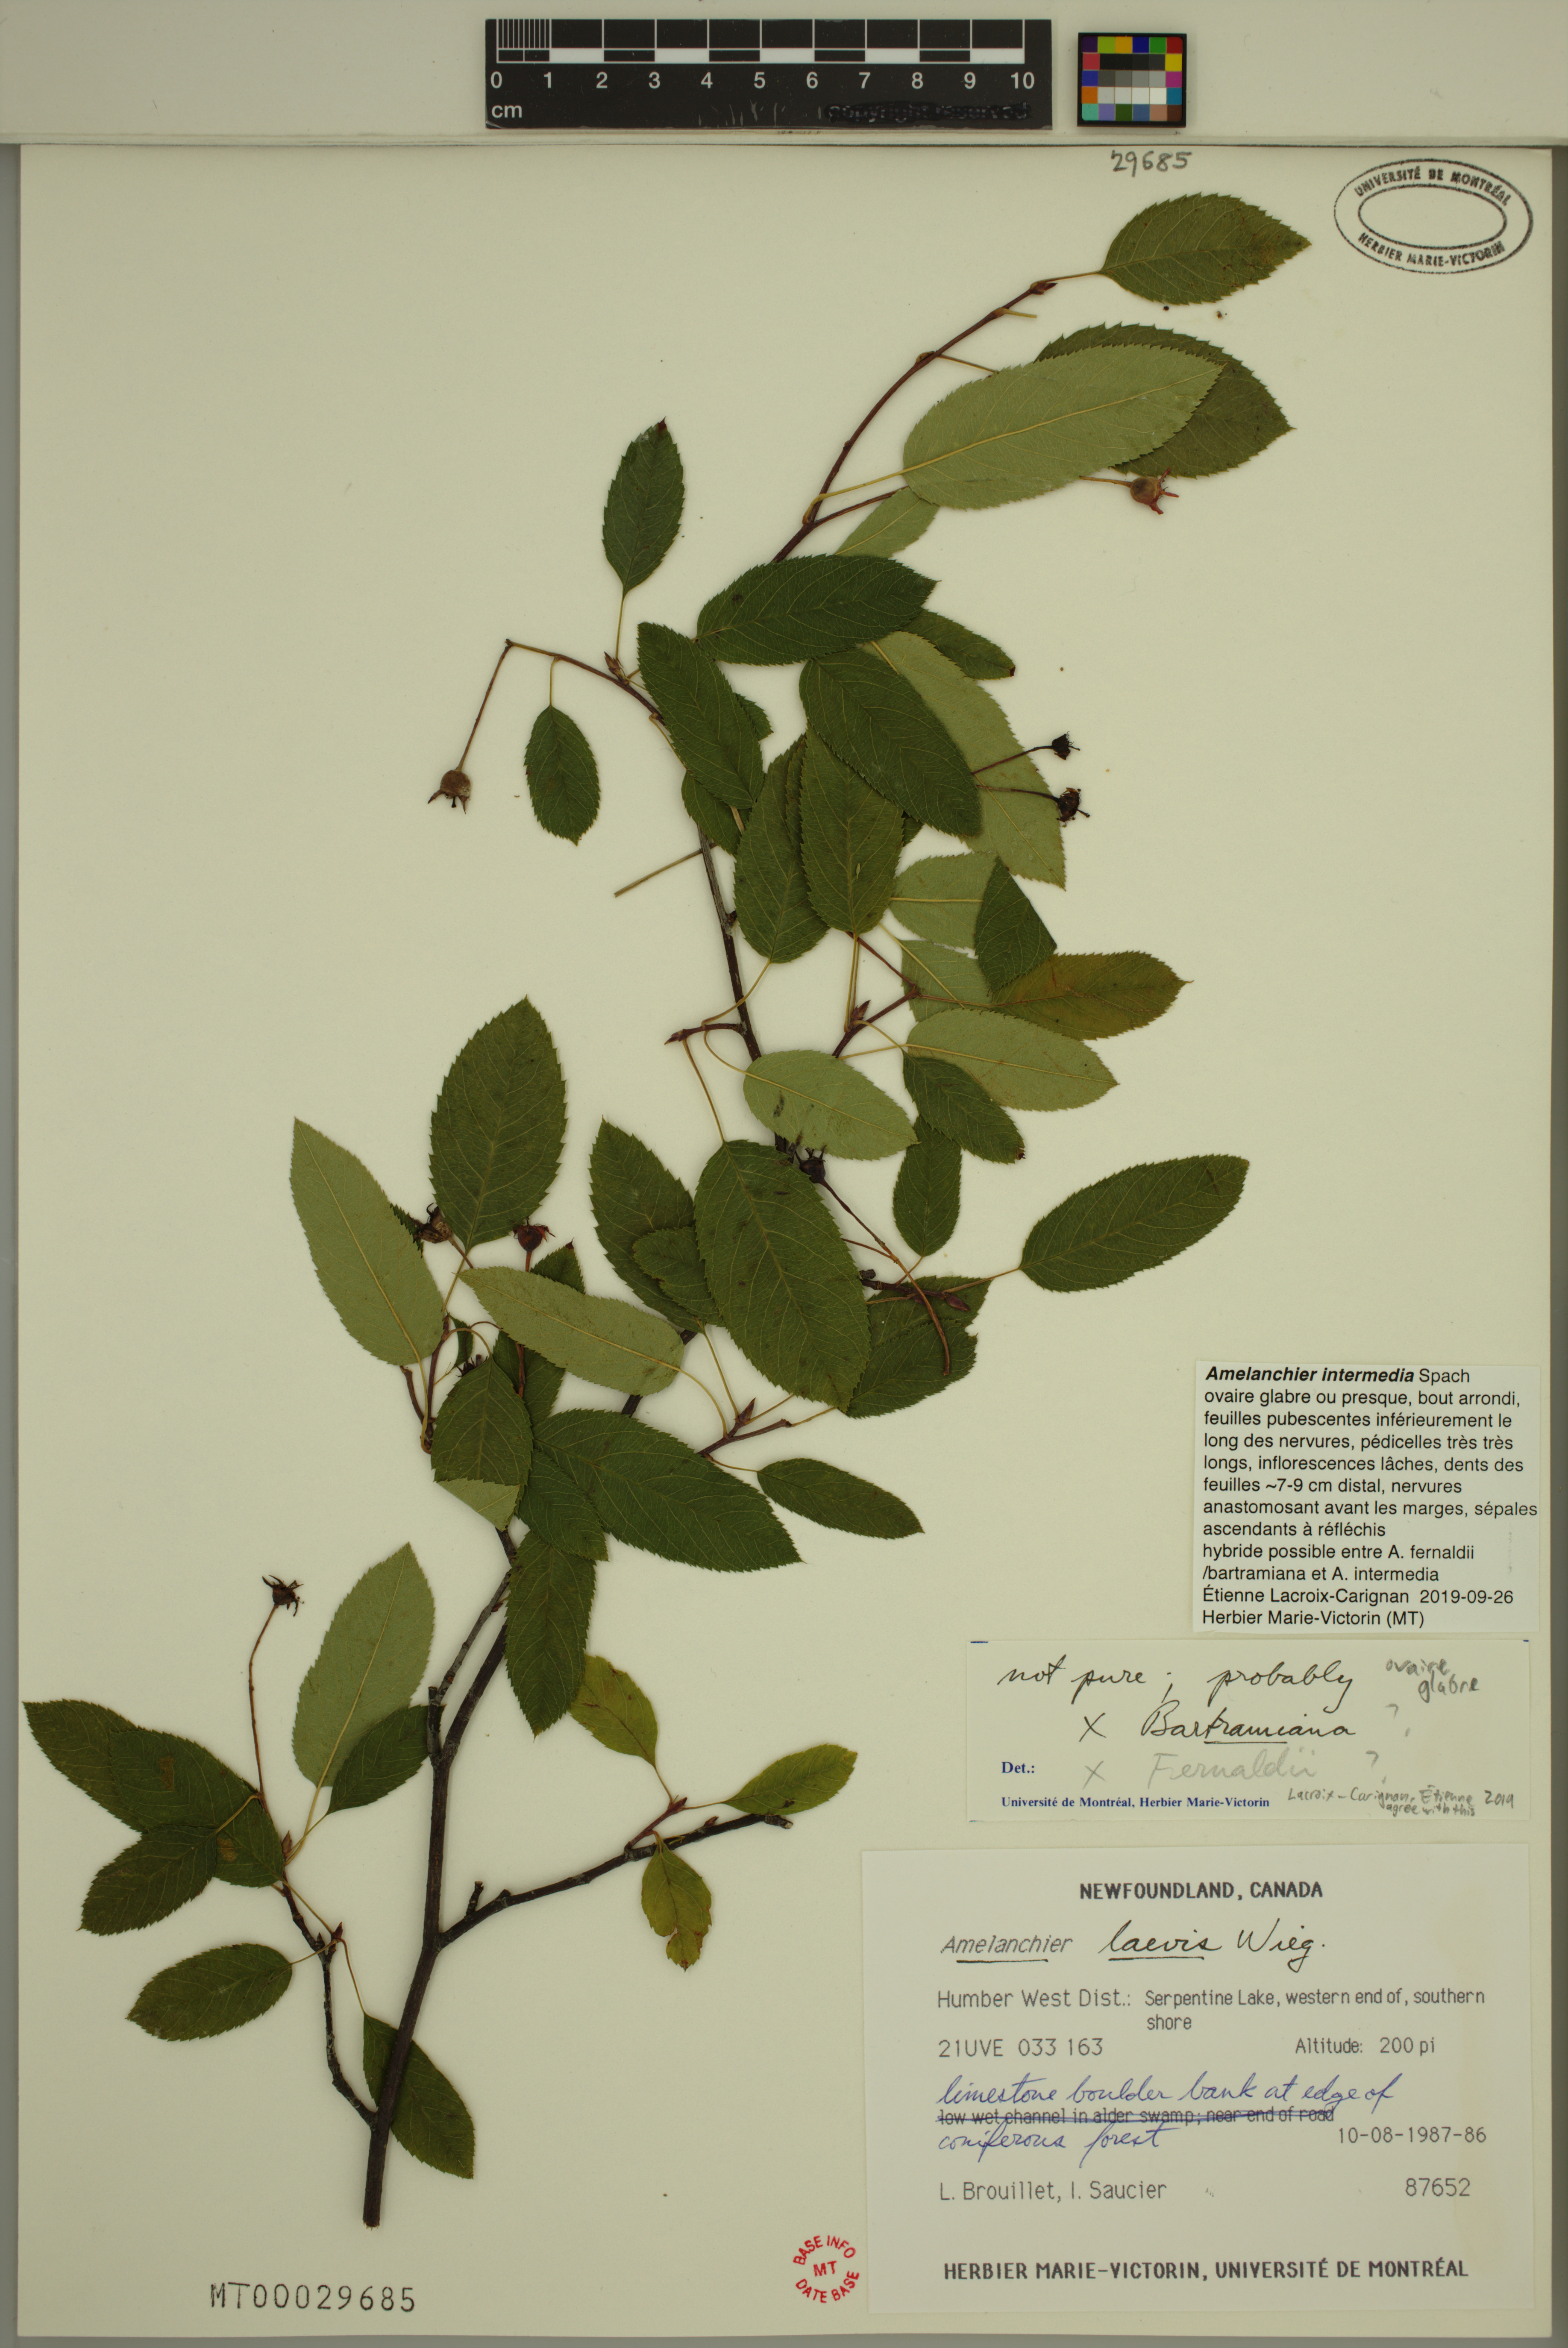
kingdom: Plantae
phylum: Tracheophyta
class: Magnoliopsida
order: Rosales
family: Rosaceae
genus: Amelanchier
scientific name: Amelanchier intermedia
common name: Intermediate shadbush
